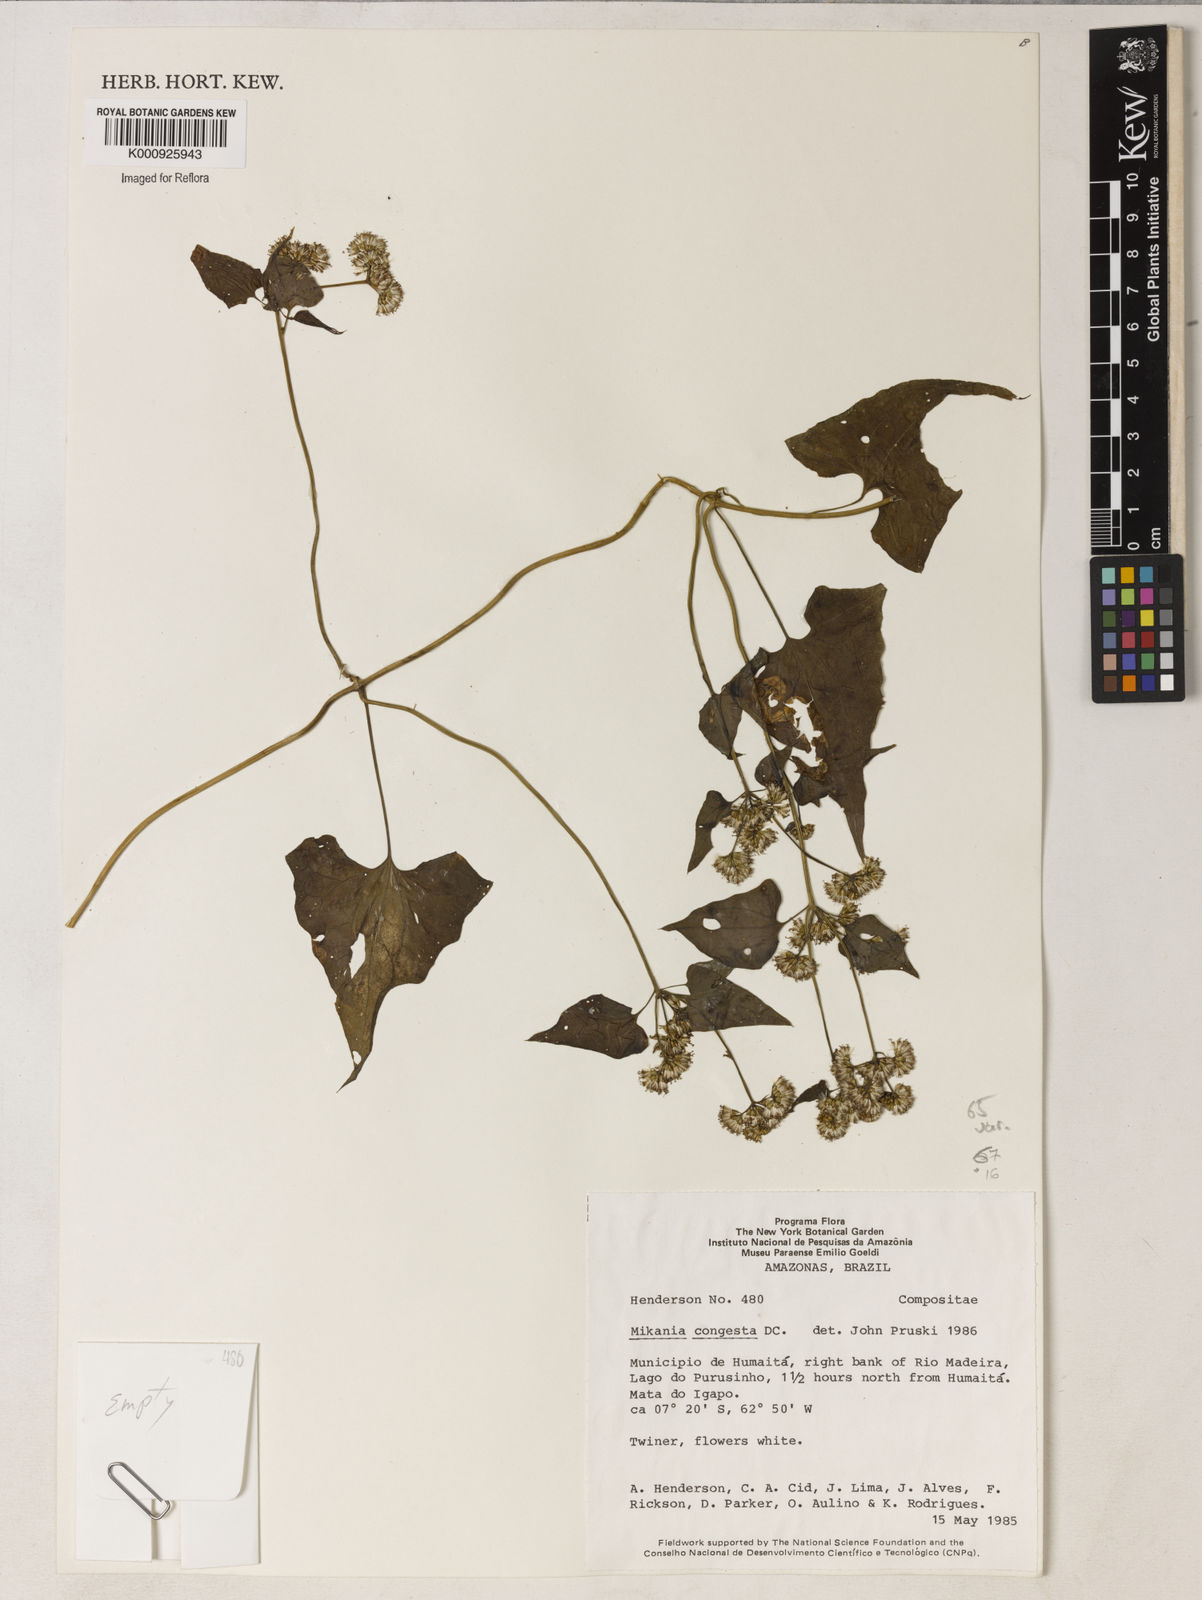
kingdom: Plantae
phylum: Tracheophyta
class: Magnoliopsida
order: Asterales
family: Asteraceae
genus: Mikania
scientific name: Mikania congesta
